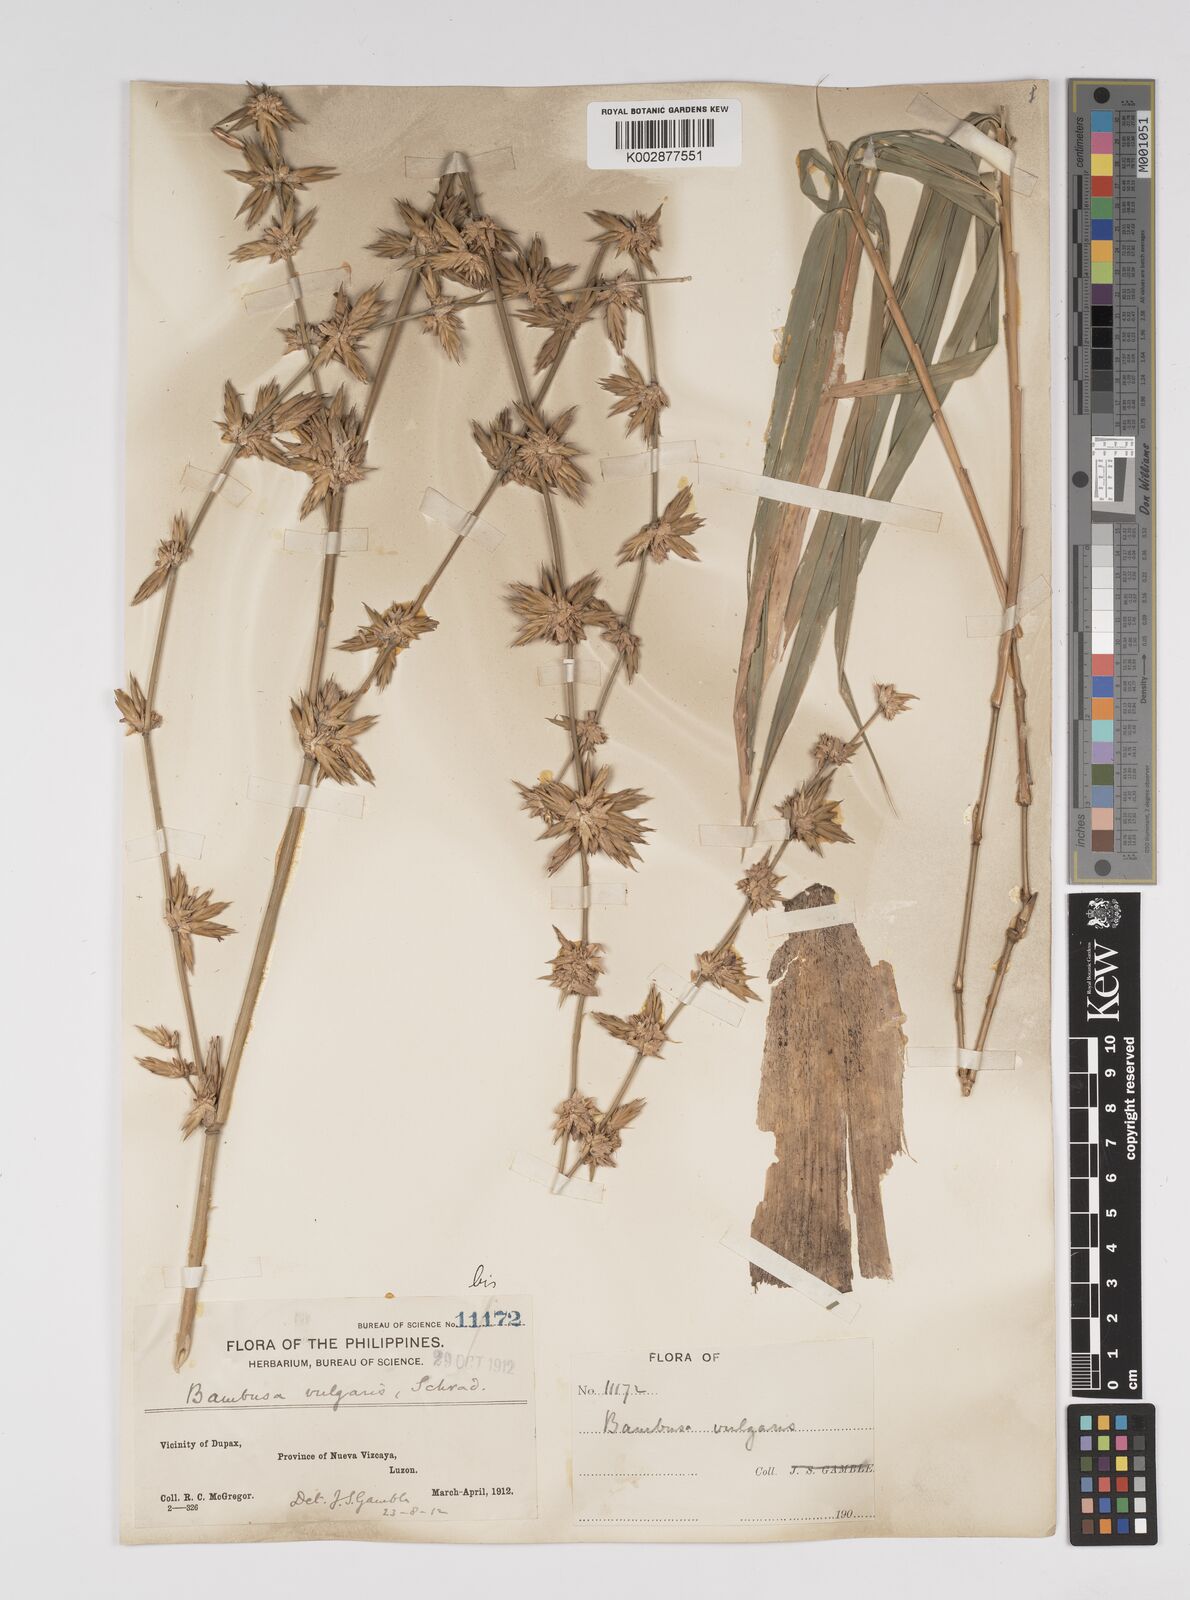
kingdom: Plantae
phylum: Tracheophyta
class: Liliopsida
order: Poales
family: Poaceae
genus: Bambusa
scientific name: Bambusa vulgaris
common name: Common bamboo
